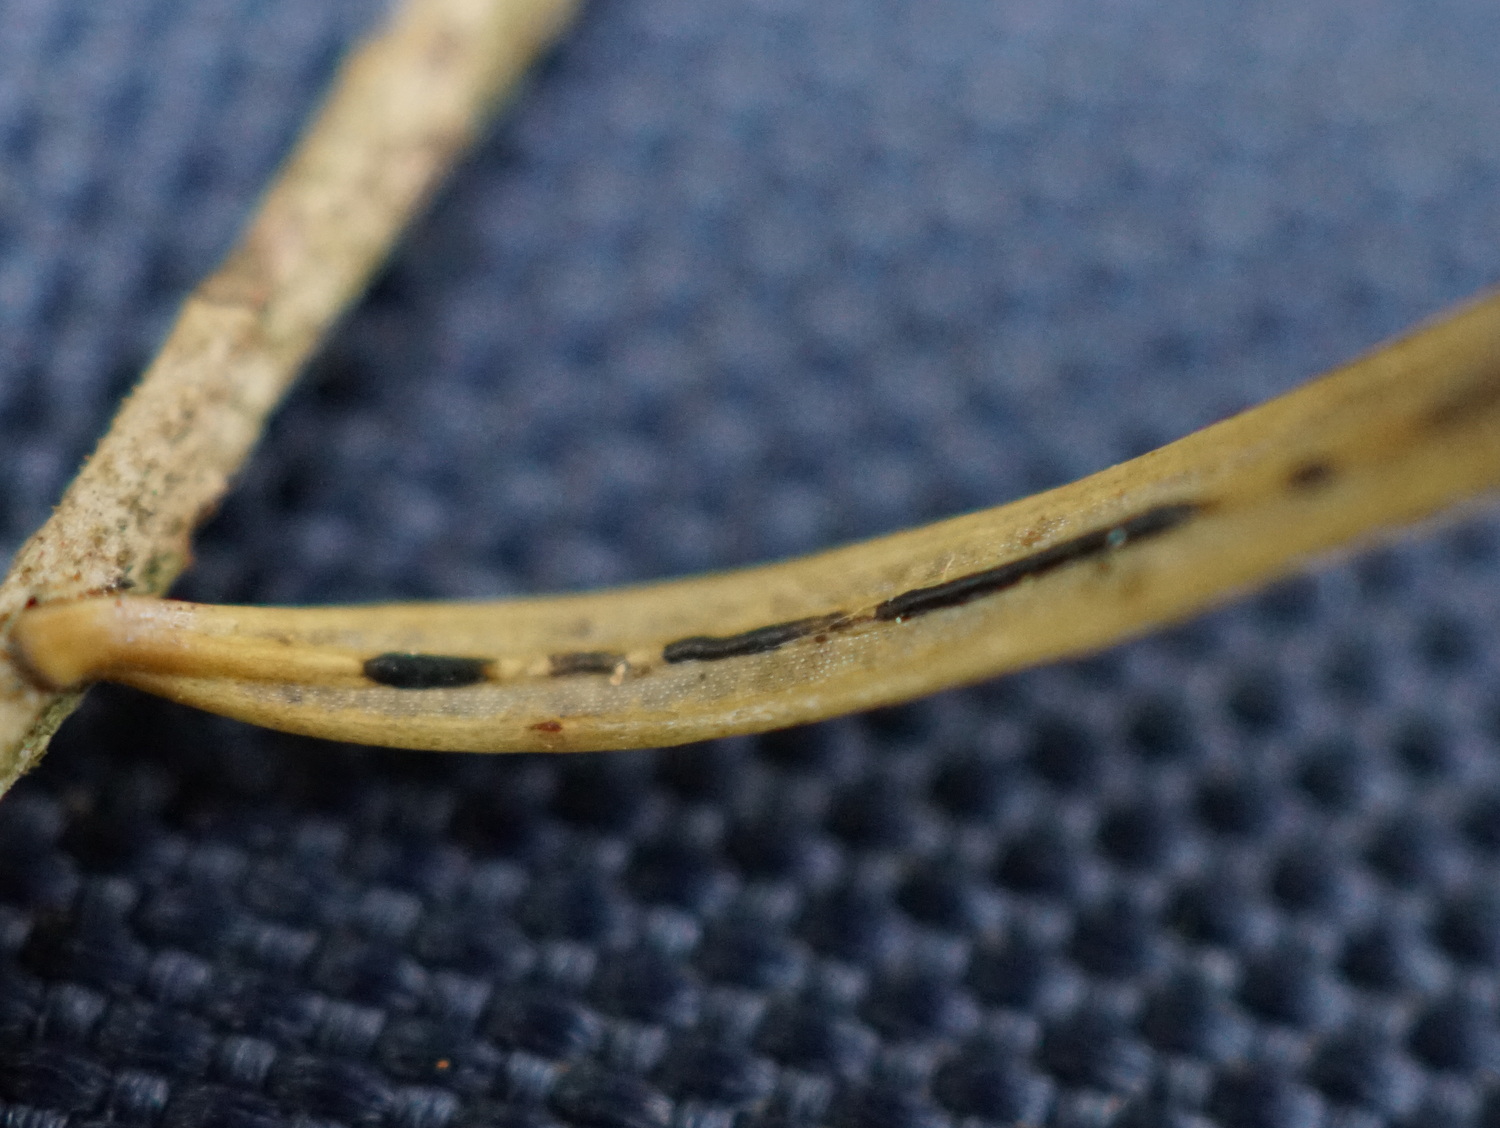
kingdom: Fungi
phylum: Ascomycota
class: Leotiomycetes
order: Rhytismatales
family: Rhytismataceae
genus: Lirula
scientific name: Lirula nervisequia
